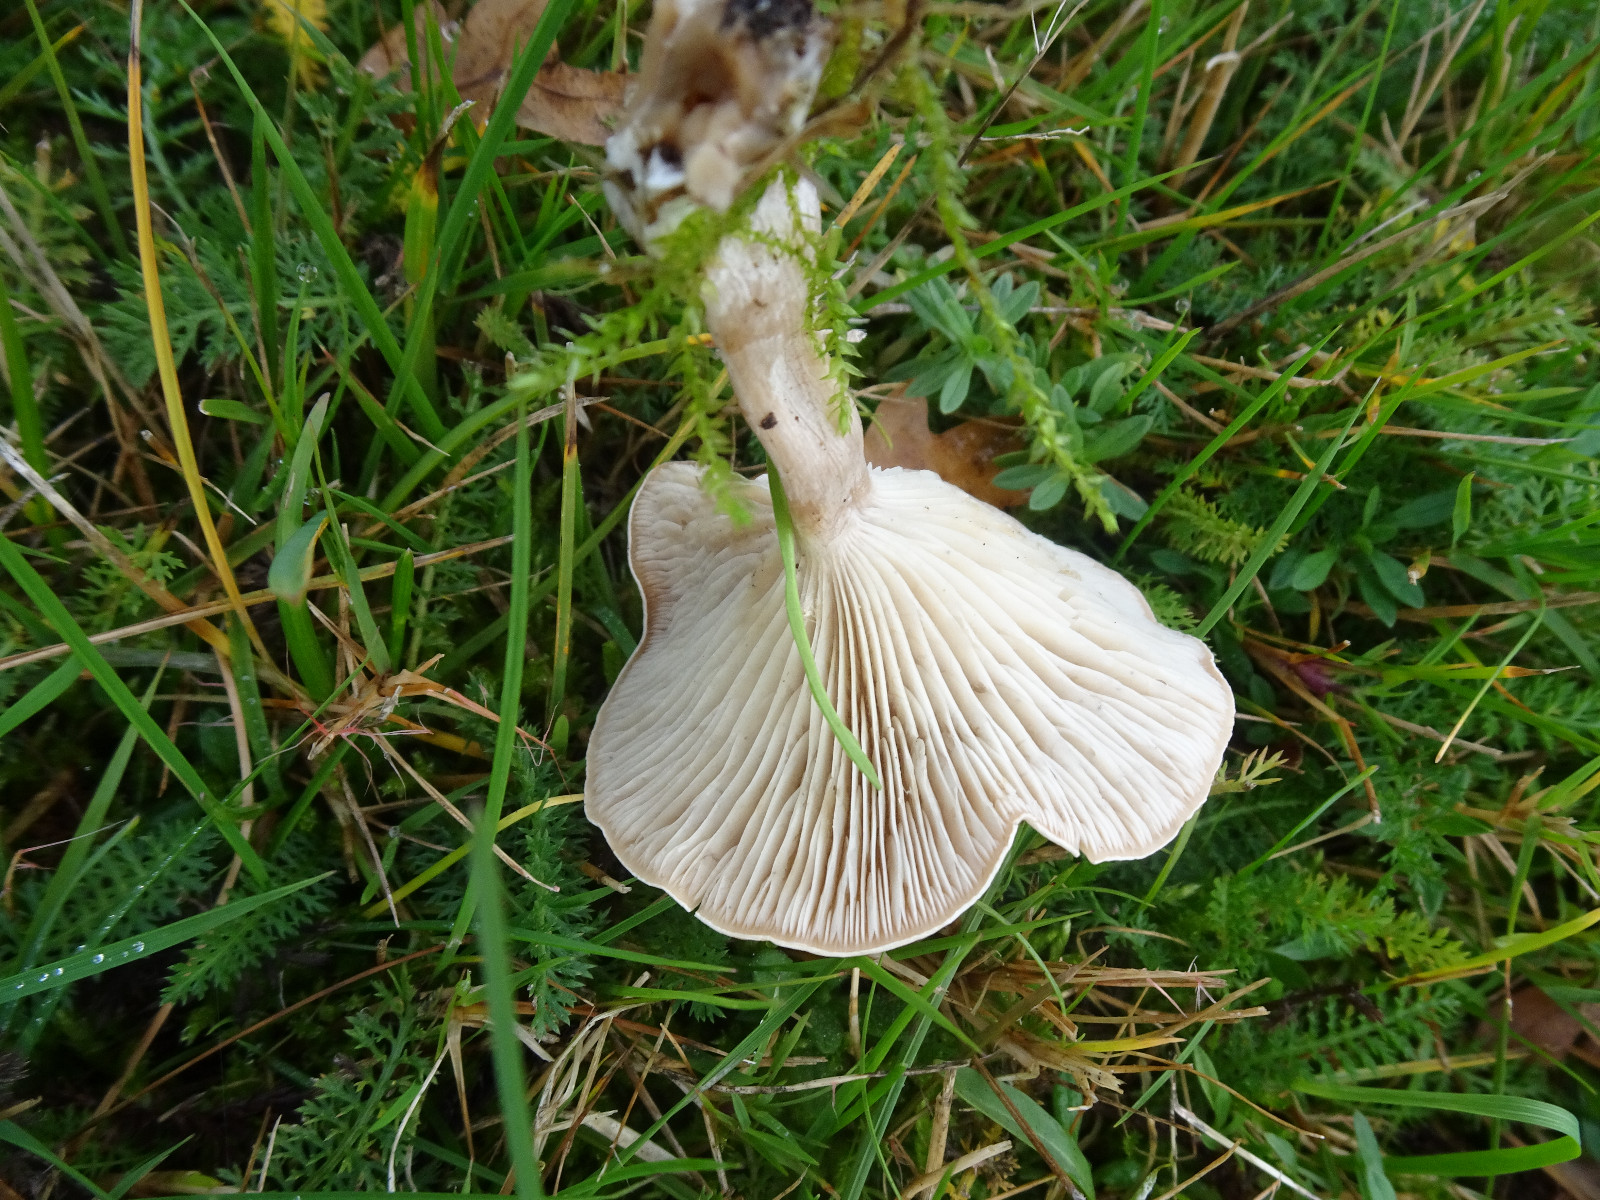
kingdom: Fungi
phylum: Basidiomycota
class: Agaricomycetes
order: Agaricales
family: Tricholomataceae
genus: Clitocybe
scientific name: Clitocybe rivulosa
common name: eng-tragthat
